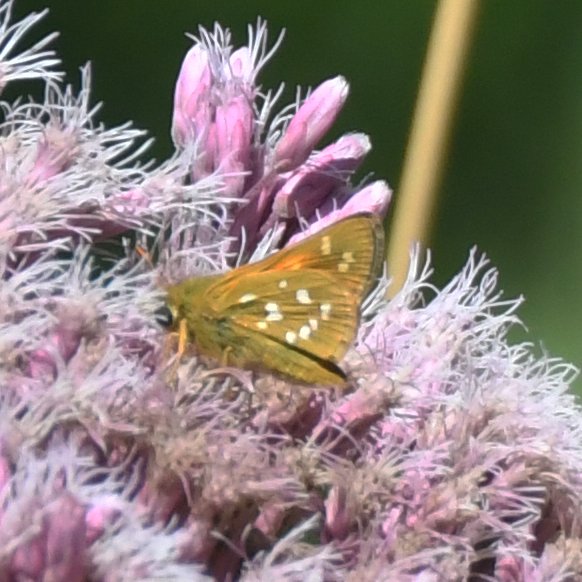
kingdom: Animalia
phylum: Arthropoda
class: Insecta
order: Lepidoptera
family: Hesperiidae
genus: Hesperia
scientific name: Hesperia comma
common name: Common Branded Skipper
